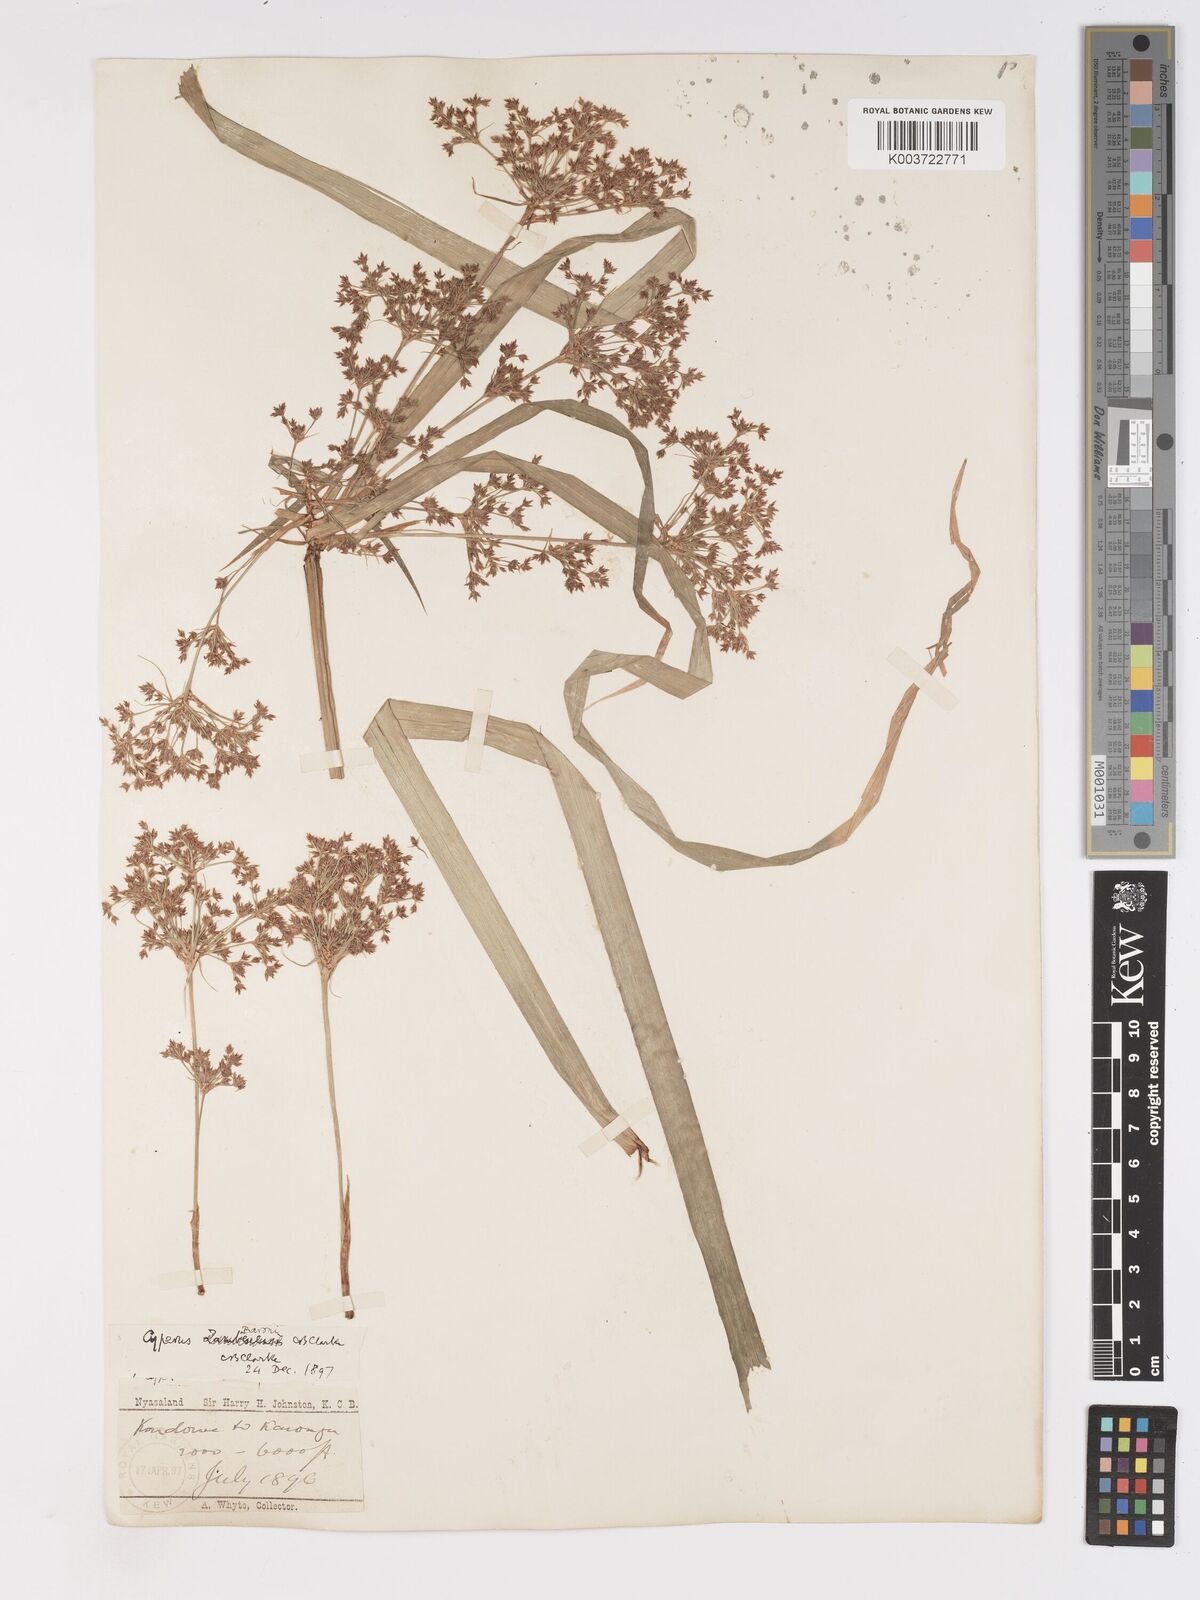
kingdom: Plantae
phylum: Tracheophyta
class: Liliopsida
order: Poales
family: Cyperaceae
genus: Cyperus
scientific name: Cyperus ajax
